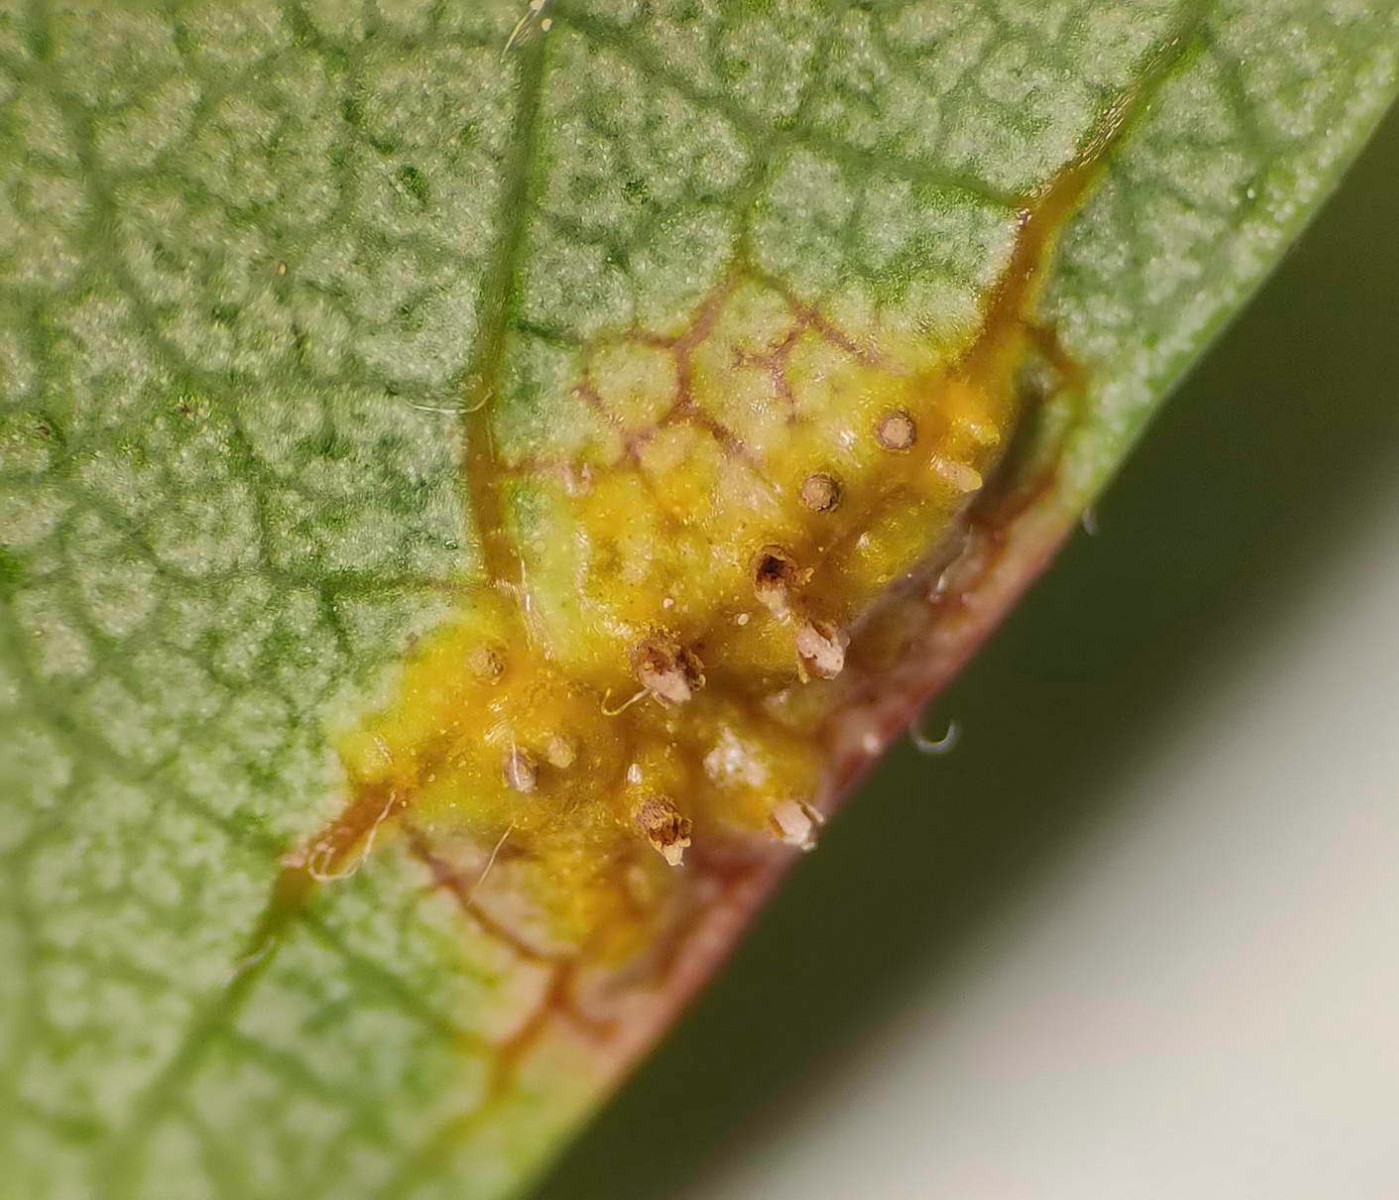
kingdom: Fungi
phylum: Basidiomycota
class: Pucciniomycetes
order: Pucciniales
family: Gymnosporangiaceae
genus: Gymnosporangium
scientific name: Gymnosporangium clavariiforme
